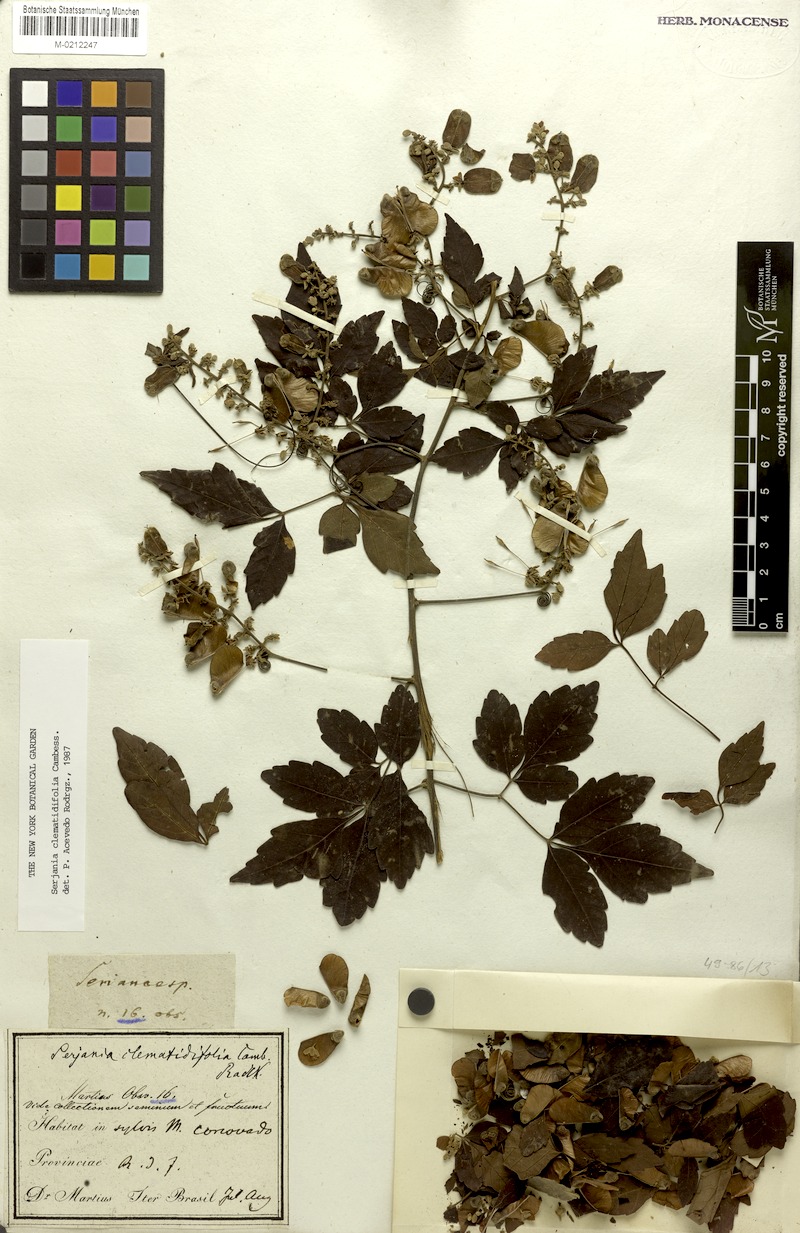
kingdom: Plantae
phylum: Tracheophyta
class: Magnoliopsida
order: Sapindales
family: Sapindaceae
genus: Serjania
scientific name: Serjania clematidifolia
